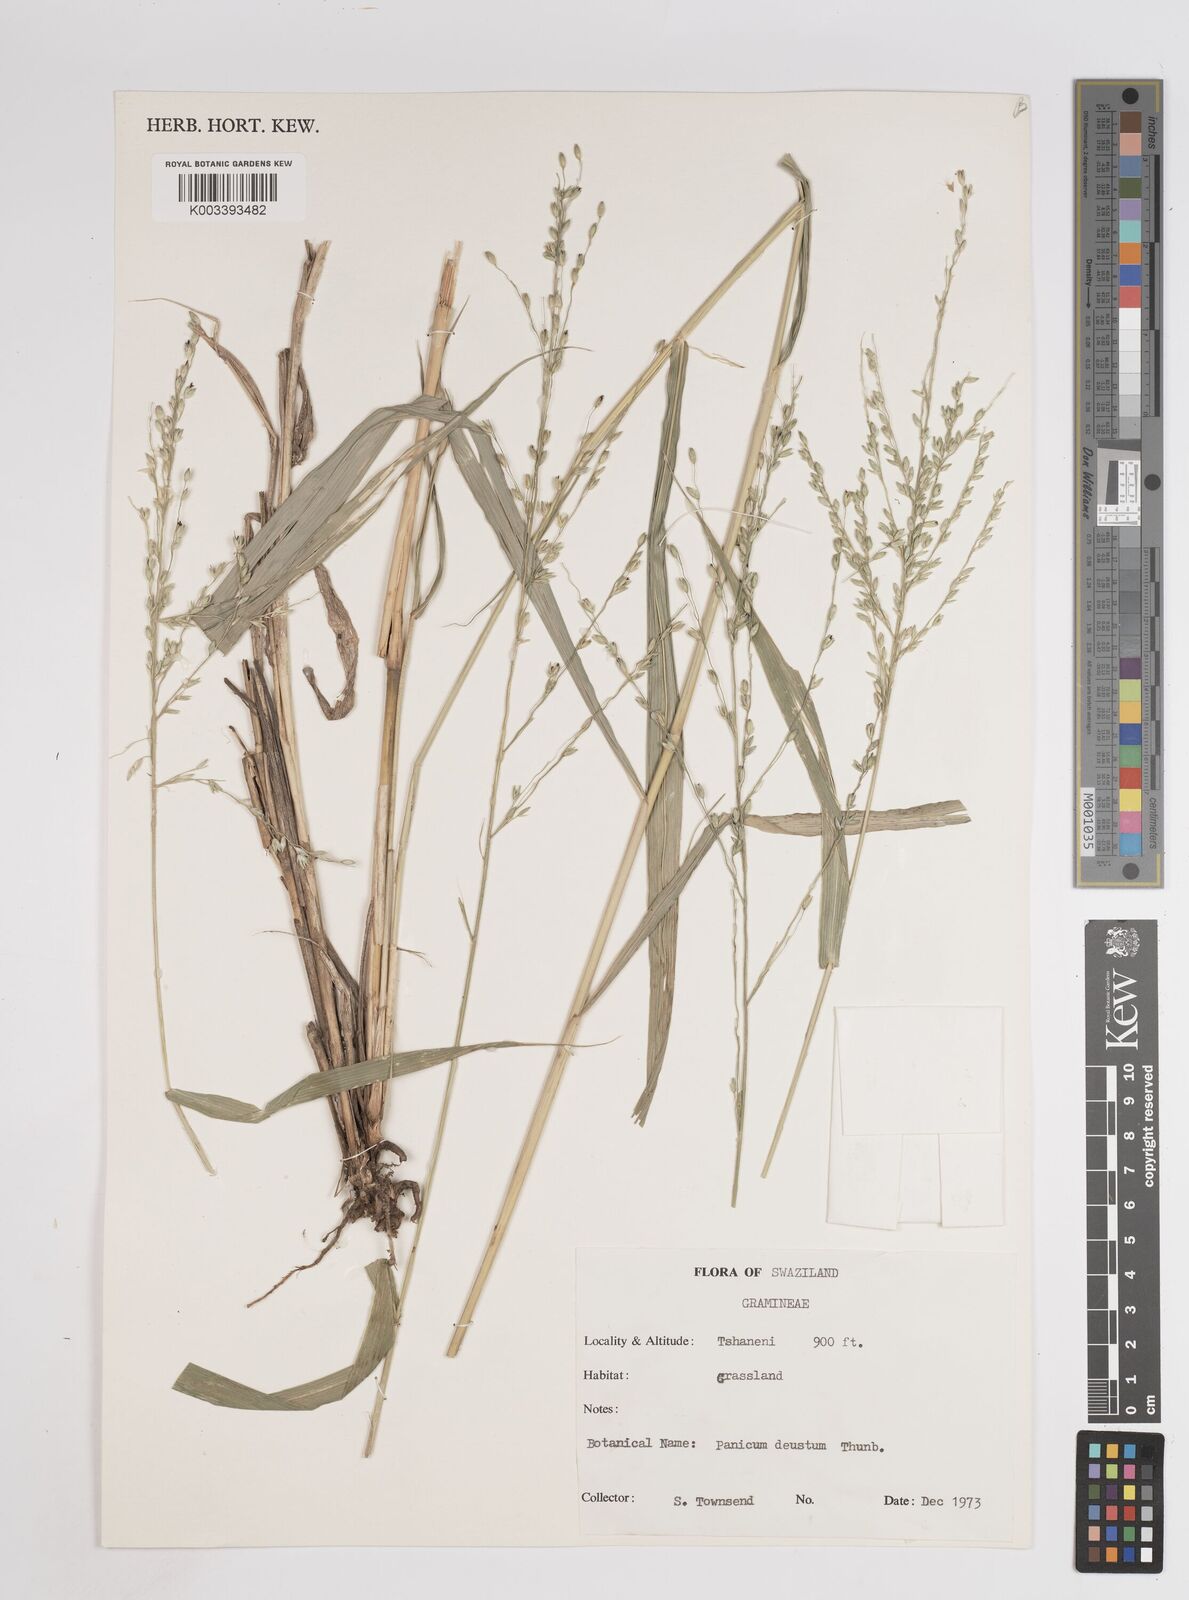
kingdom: Plantae
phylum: Tracheophyta
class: Liliopsida
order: Poales
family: Poaceae
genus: Panicum
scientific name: Panicum deustum
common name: Reed panicum
